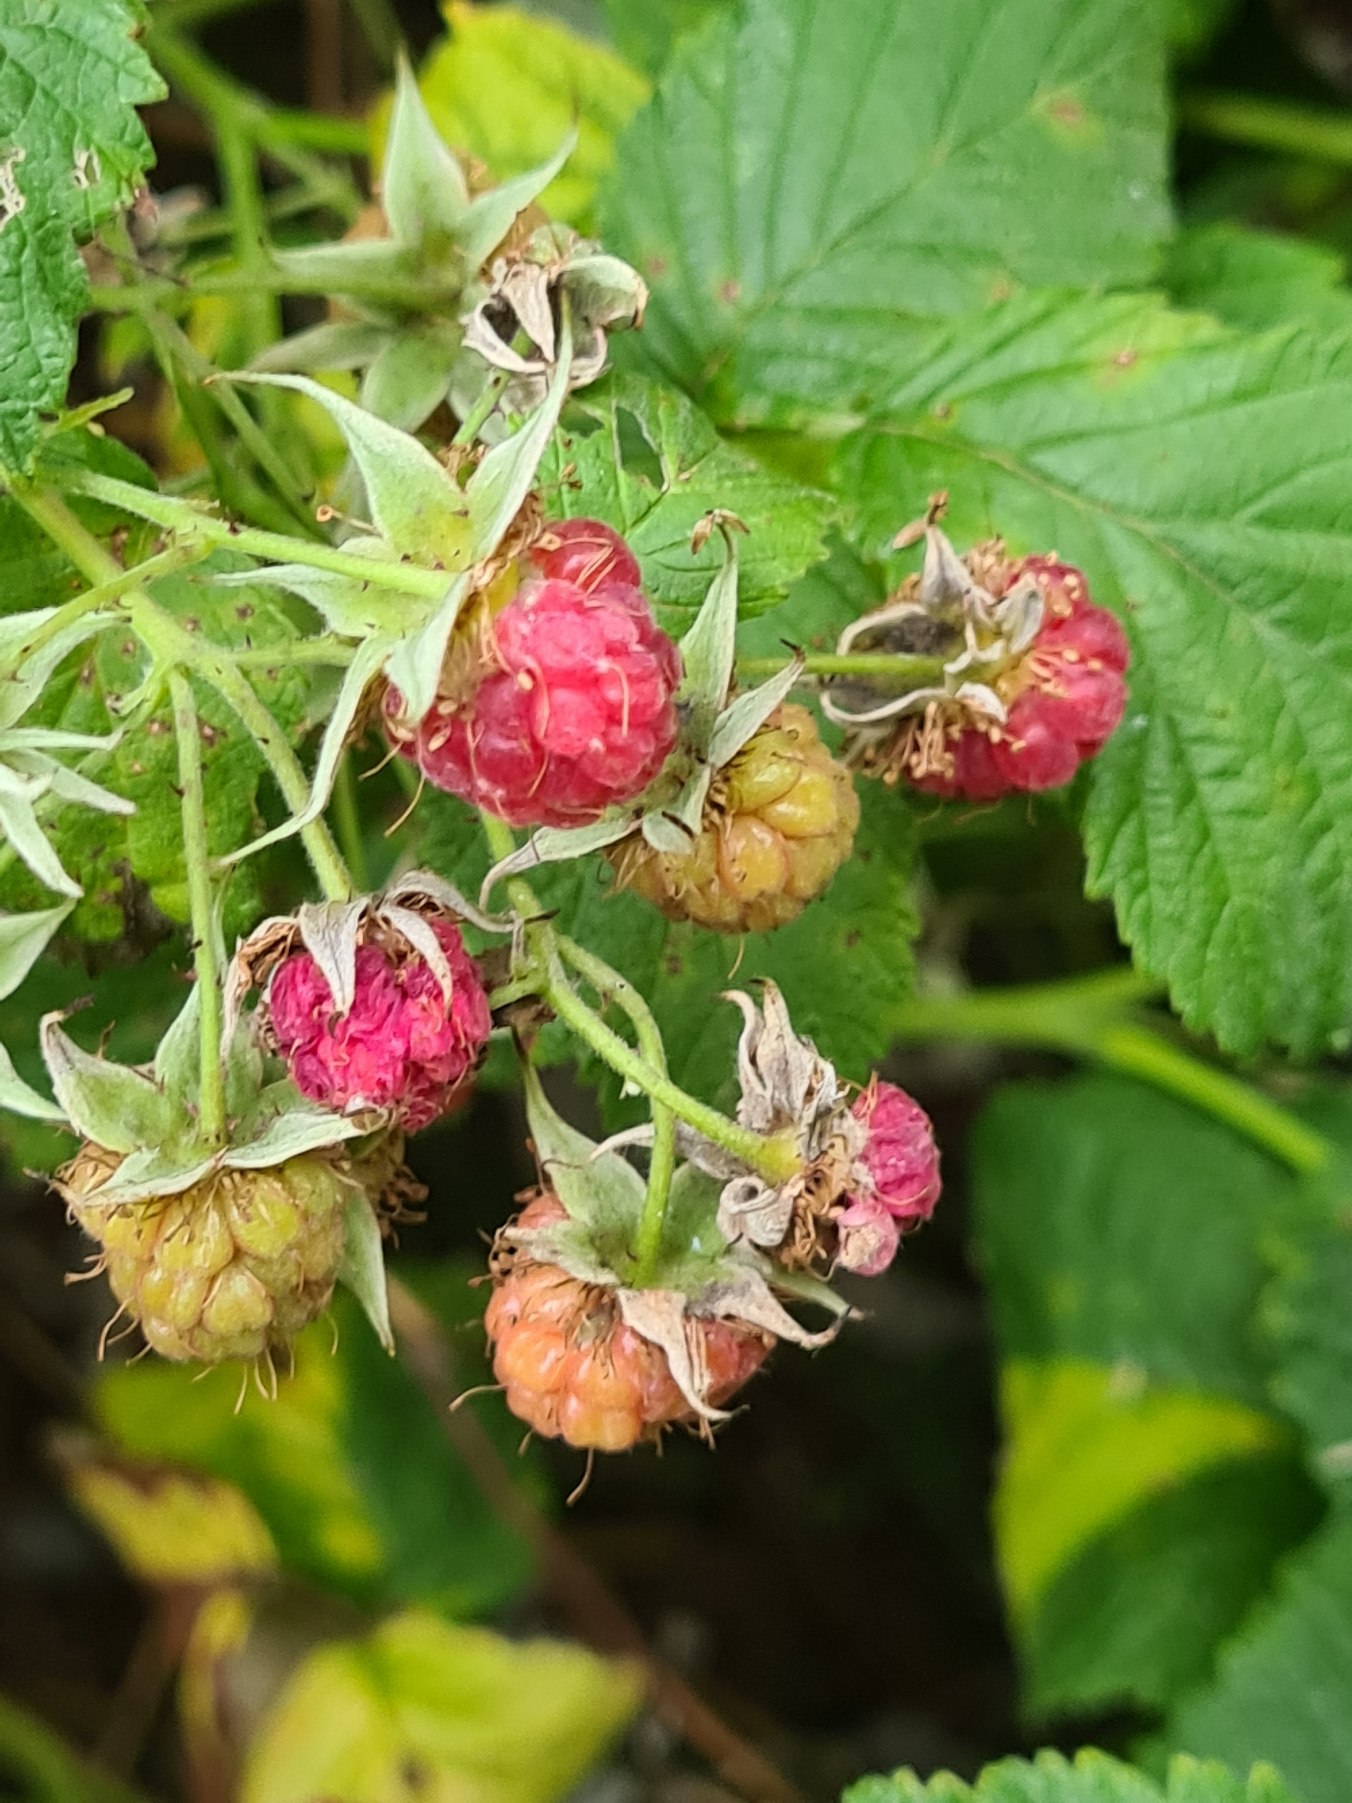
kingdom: Plantae
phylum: Tracheophyta
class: Magnoliopsida
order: Rosales
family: Rosaceae
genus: Rubus
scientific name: Rubus idaeus
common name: Hindbær
